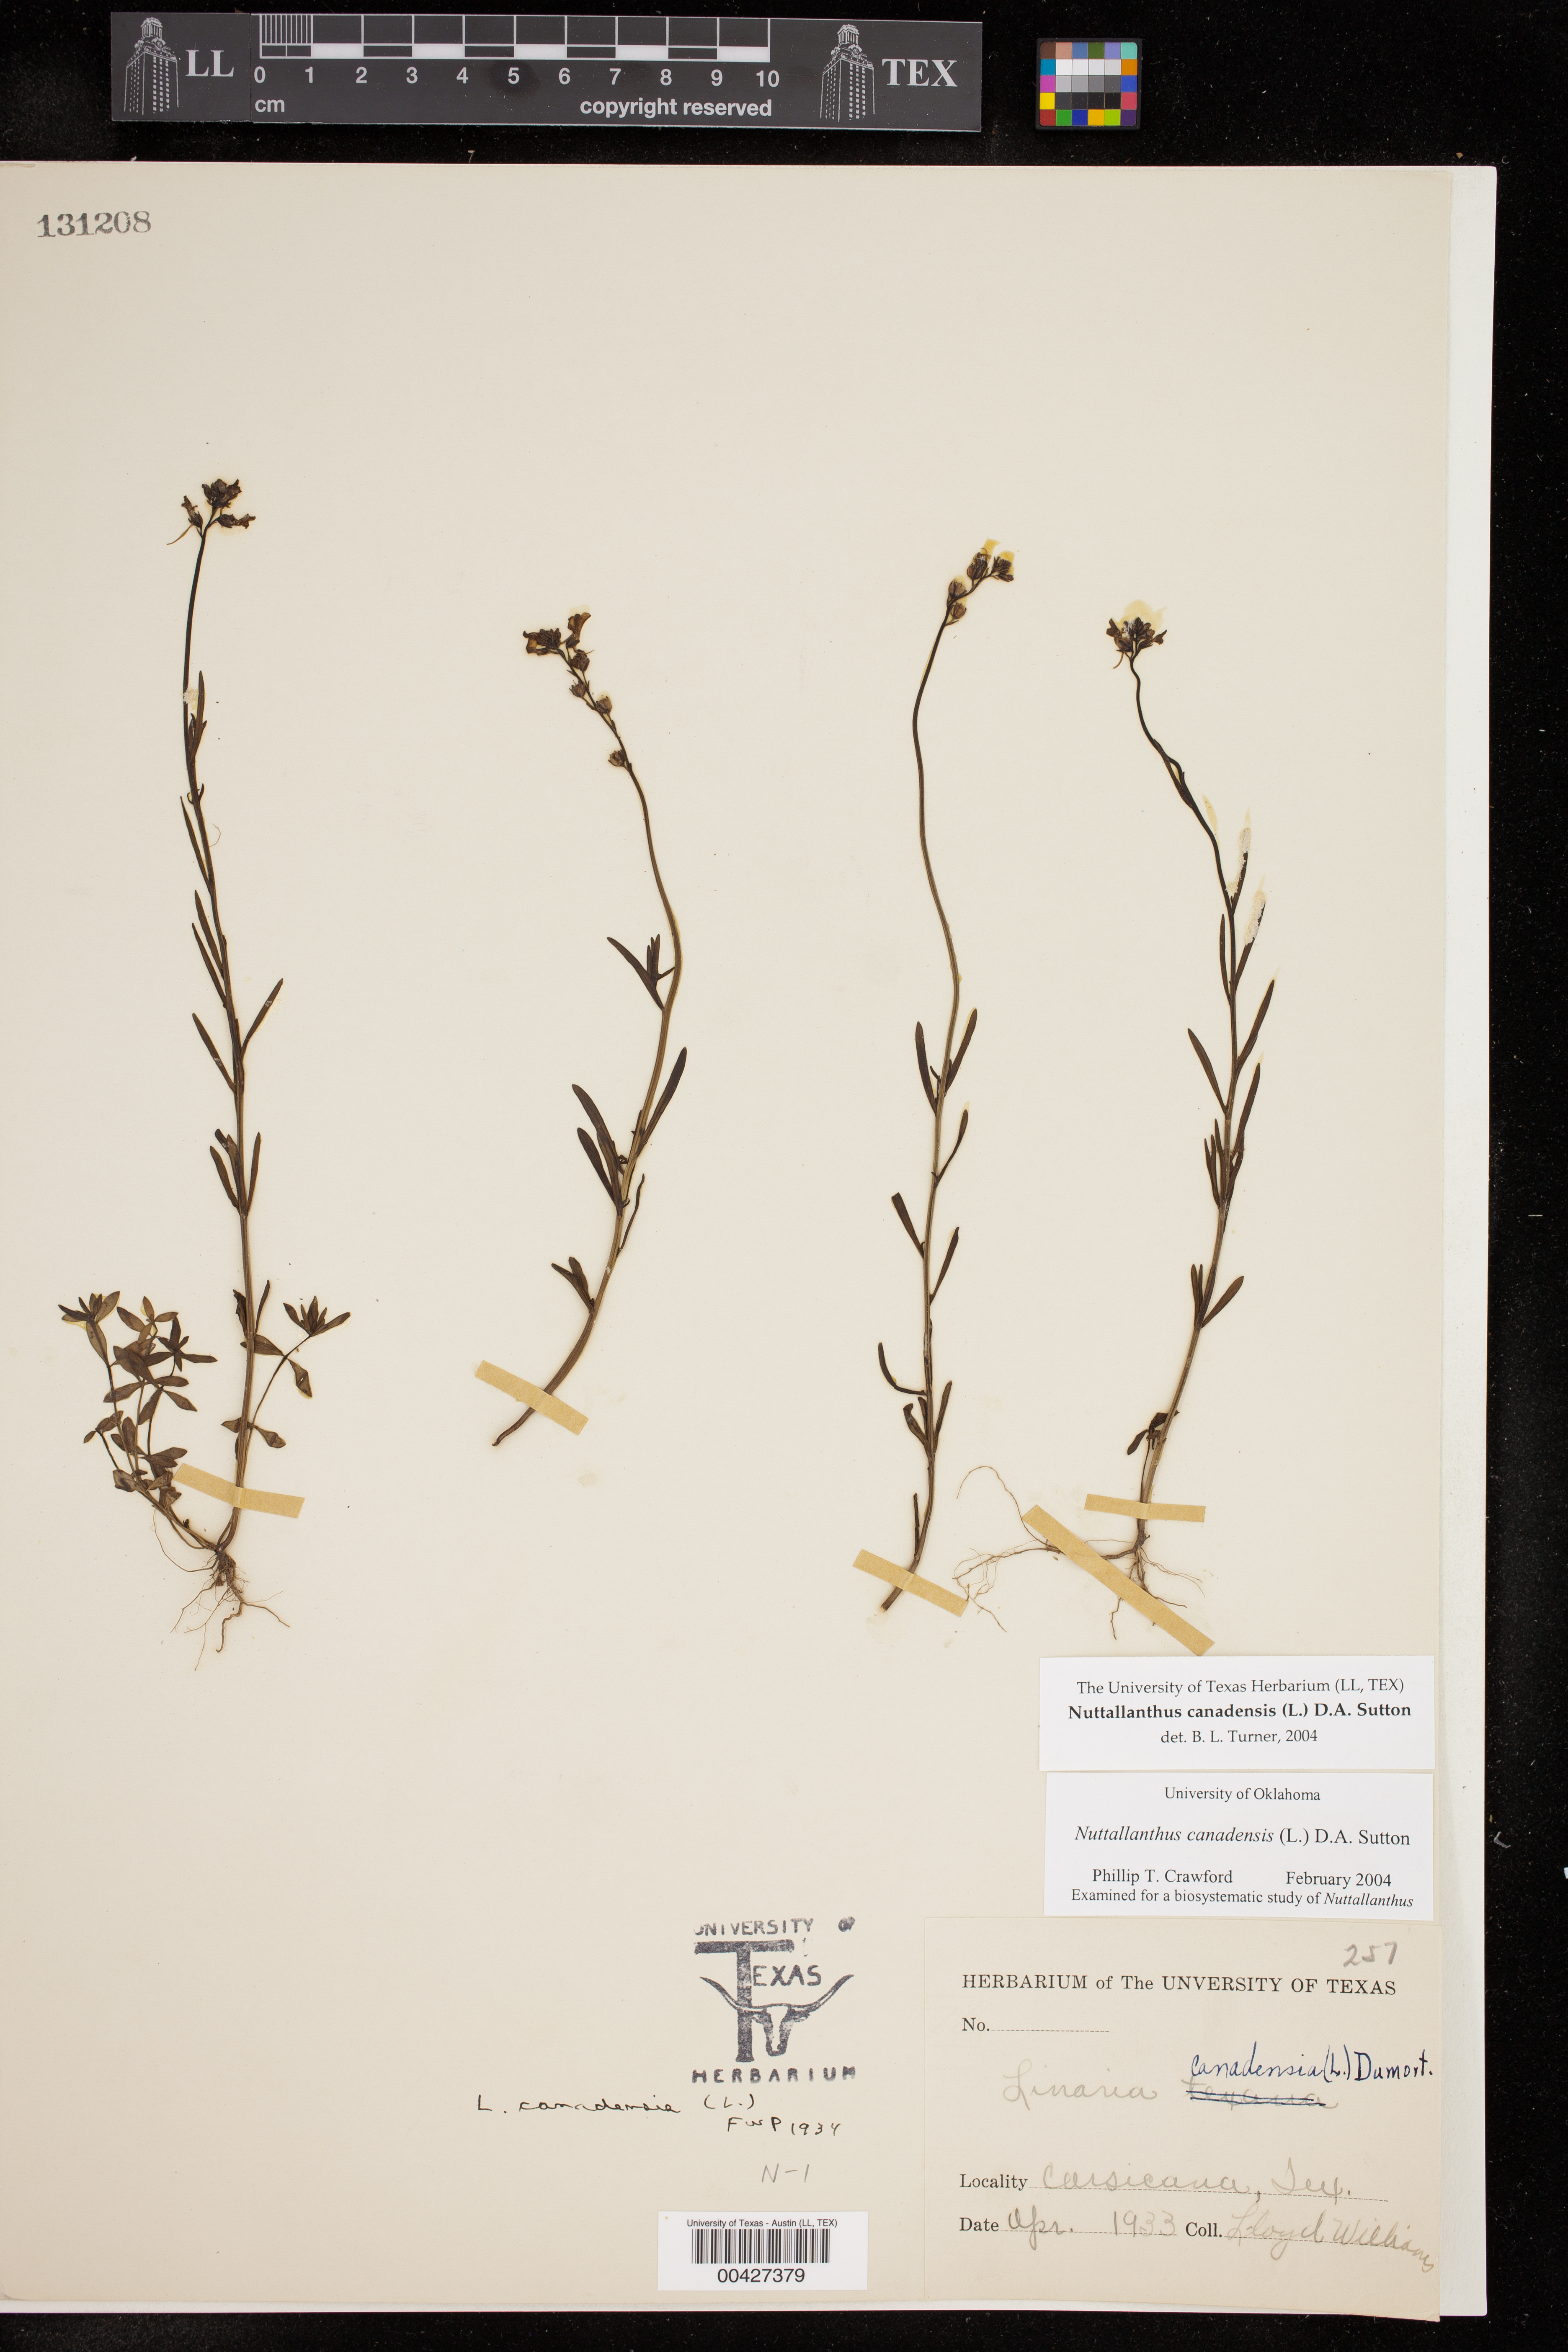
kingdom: Plantae
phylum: Tracheophyta
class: Magnoliopsida
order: Lamiales
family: Plantaginaceae
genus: Nuttallanthus
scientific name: Nuttallanthus canadensis
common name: Blue toadflax
